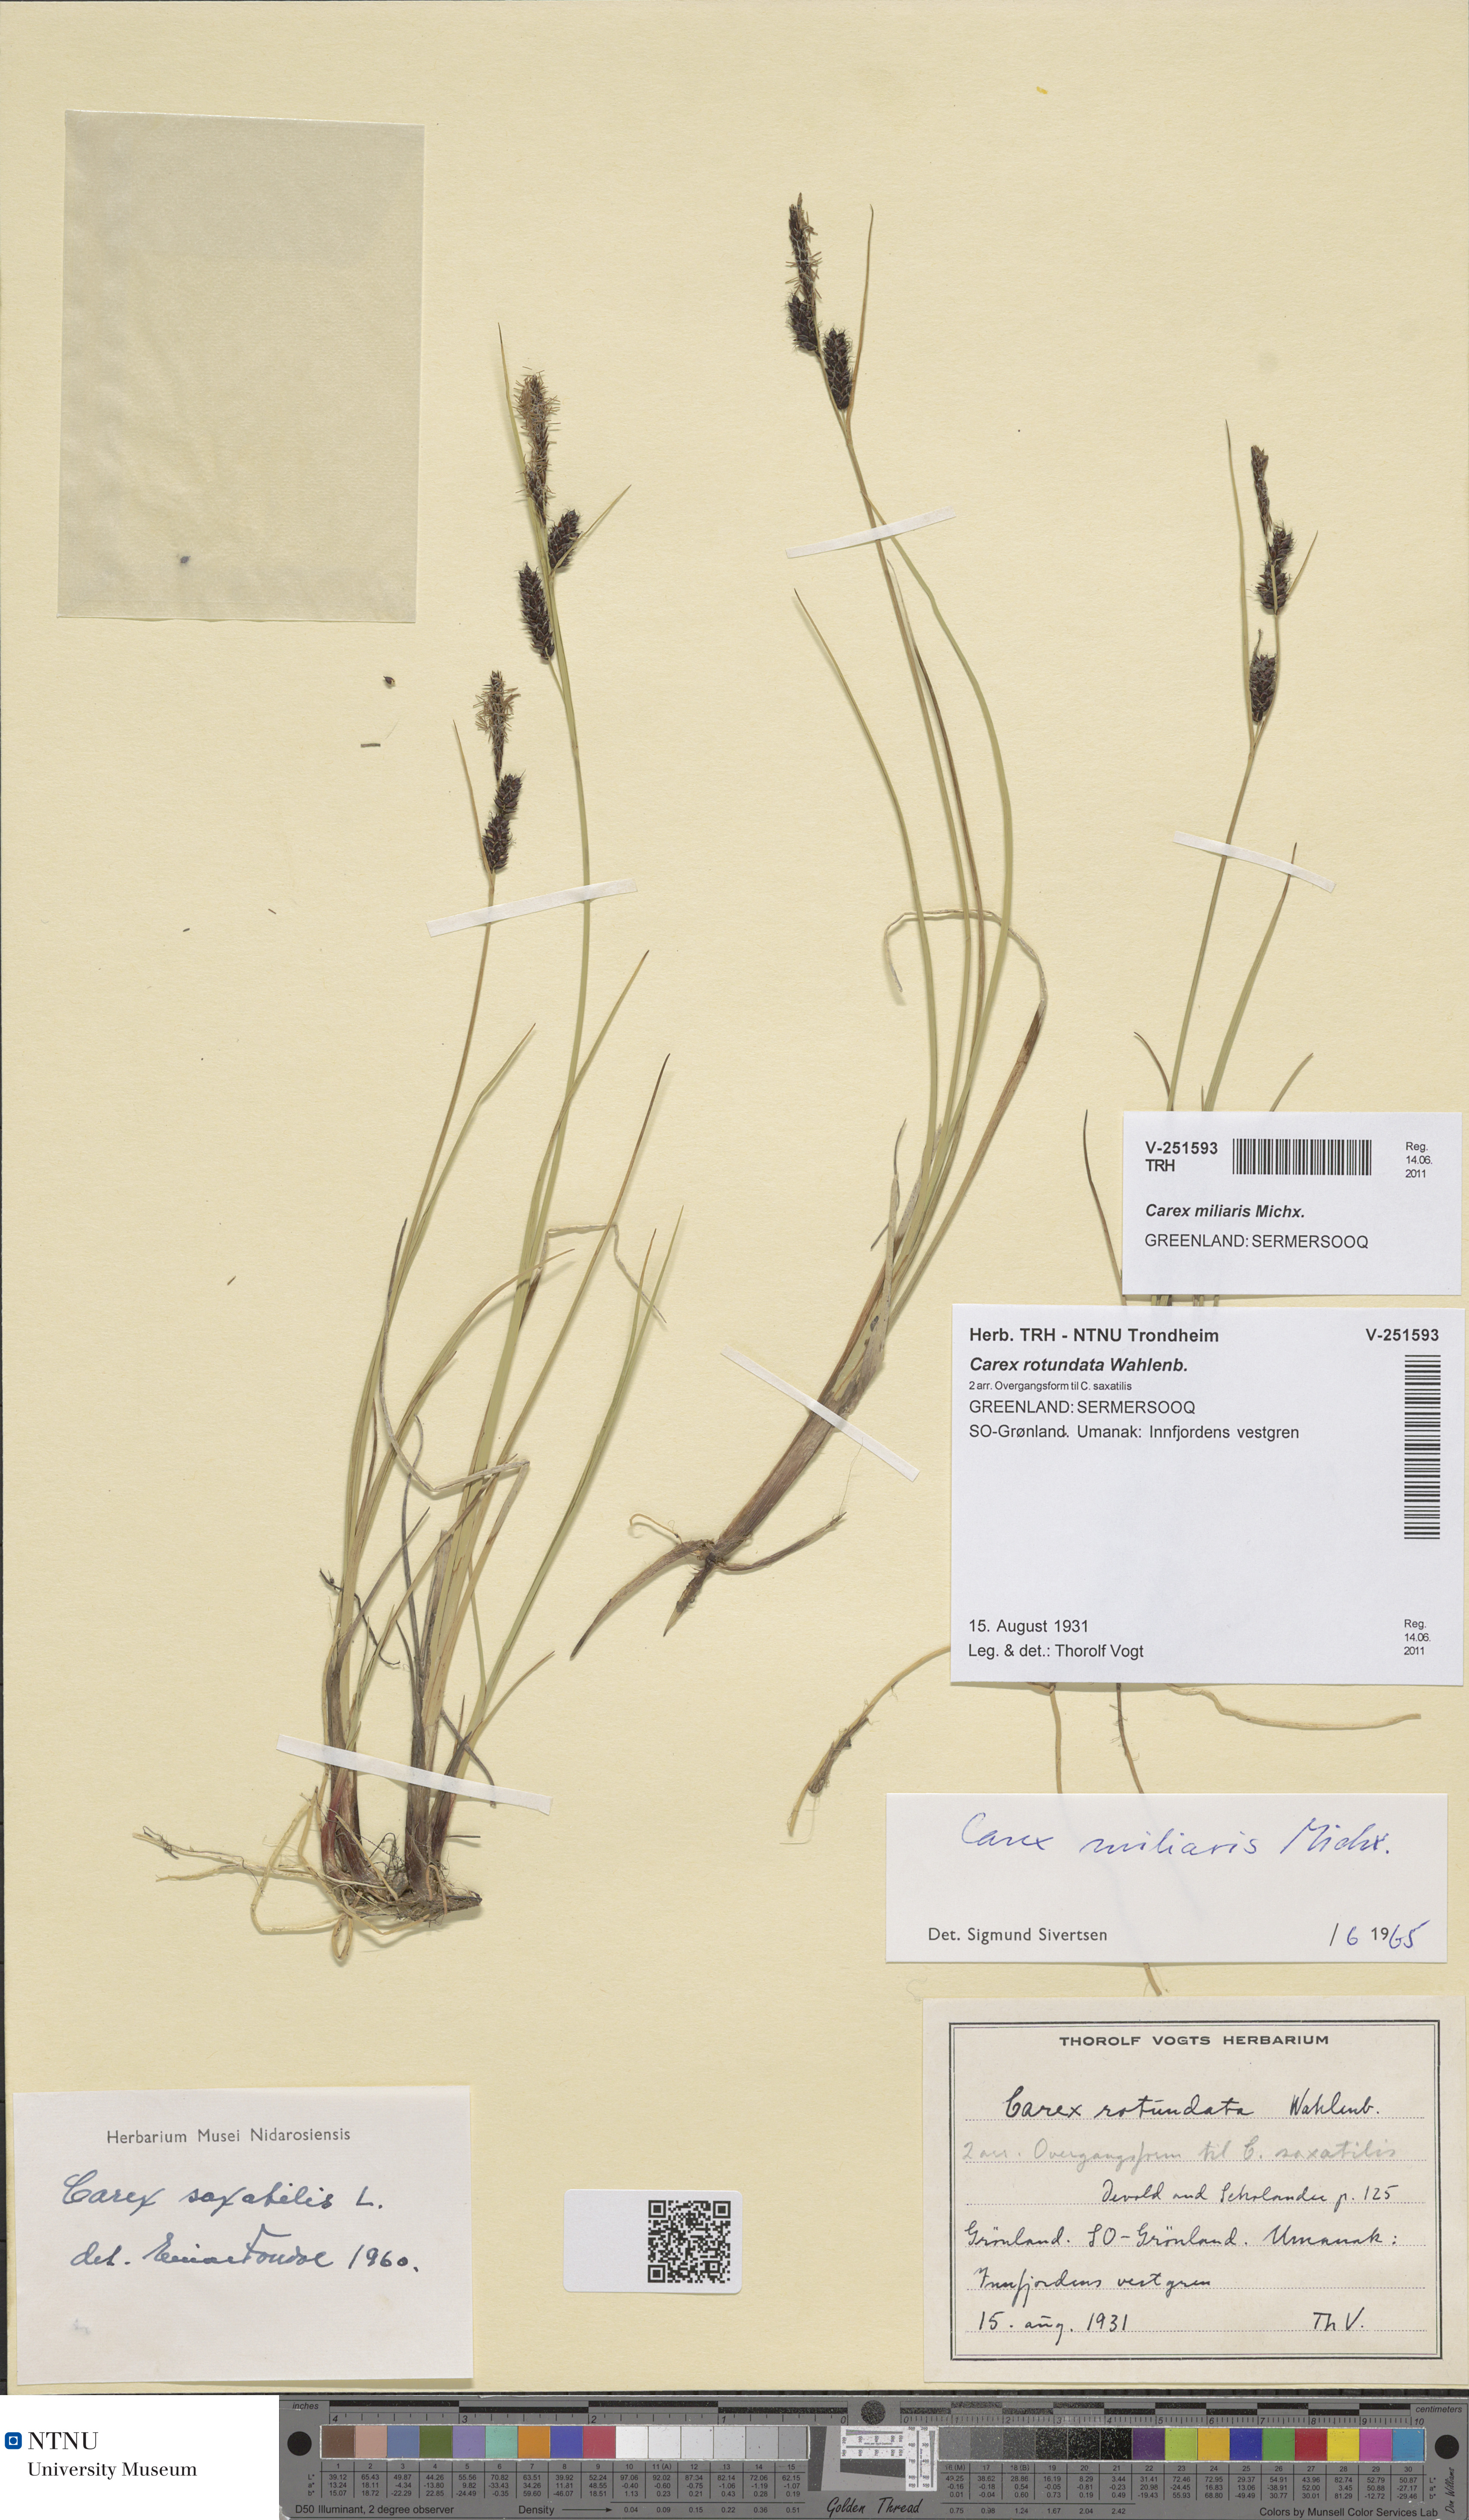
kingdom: Plantae
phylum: Tracheophyta
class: Liliopsida
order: Poales
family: Cyperaceae
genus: Carex
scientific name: Carex miliaris
